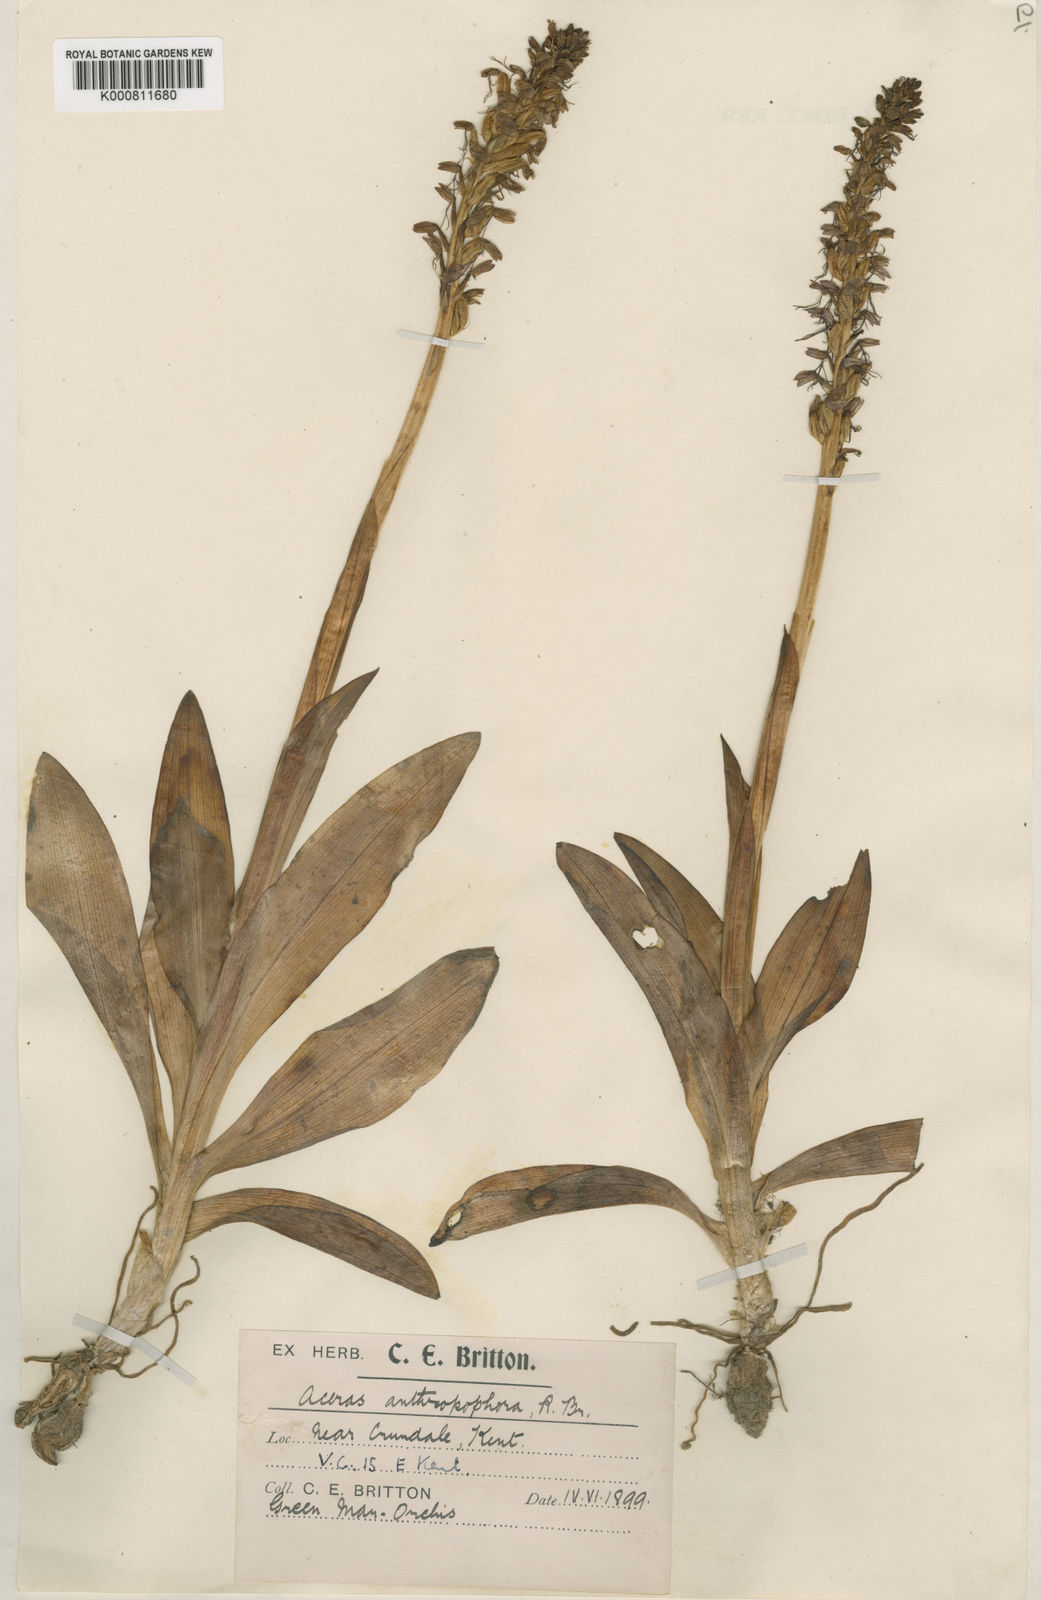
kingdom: Plantae
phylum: Tracheophyta
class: Liliopsida
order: Asparagales
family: Orchidaceae
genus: Orchis
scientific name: Orchis
